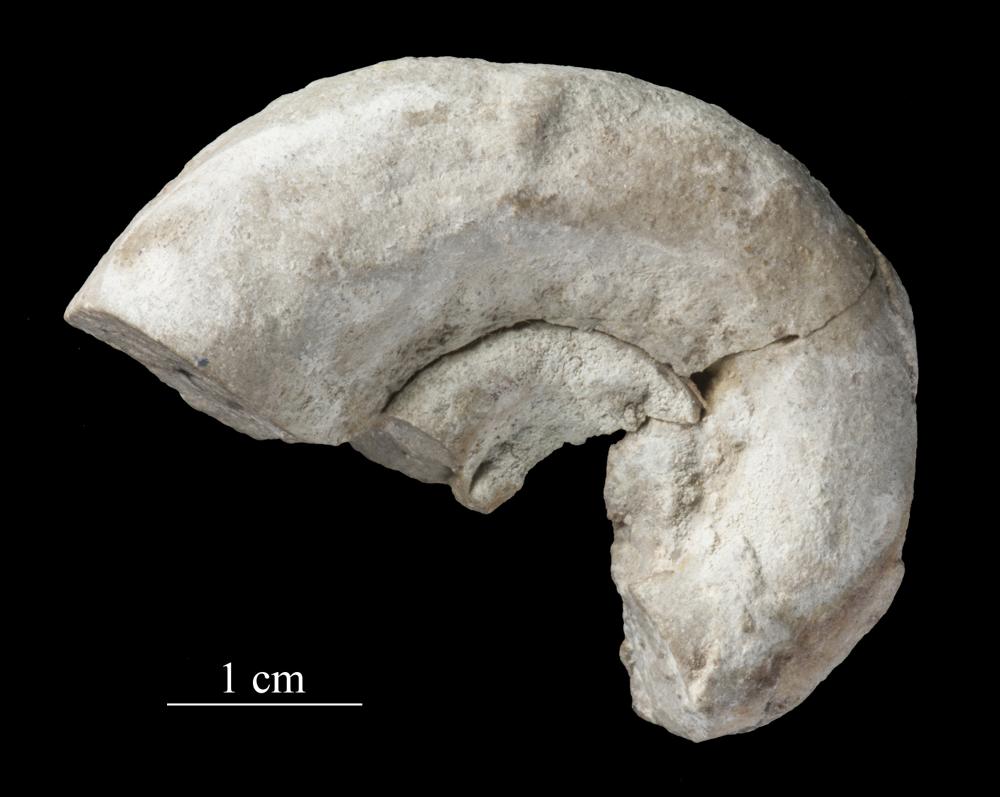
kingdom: Animalia
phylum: Mollusca
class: Gastropoda
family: Raphistomatidae
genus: Raphistoma
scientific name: Raphistoma
